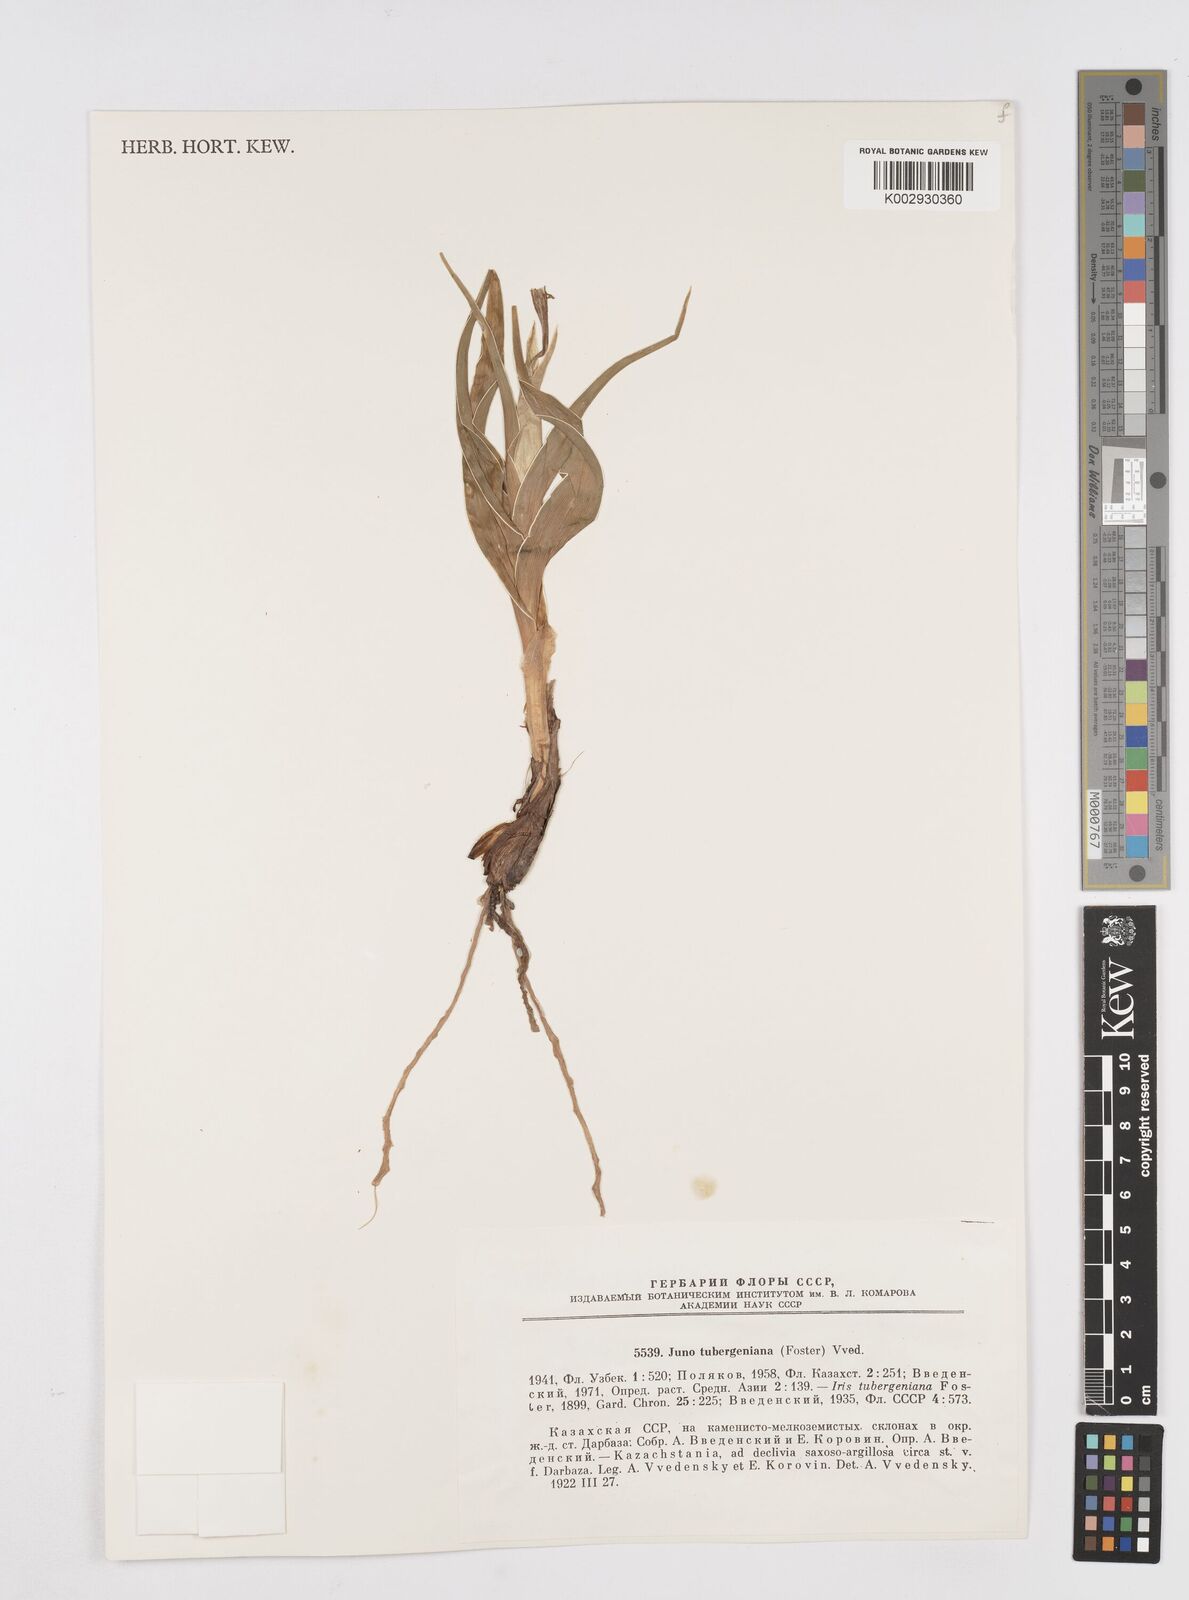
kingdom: Plantae
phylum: Tracheophyta
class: Liliopsida
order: Asparagales
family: Iridaceae
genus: Iris
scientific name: Iris tubergeniana
